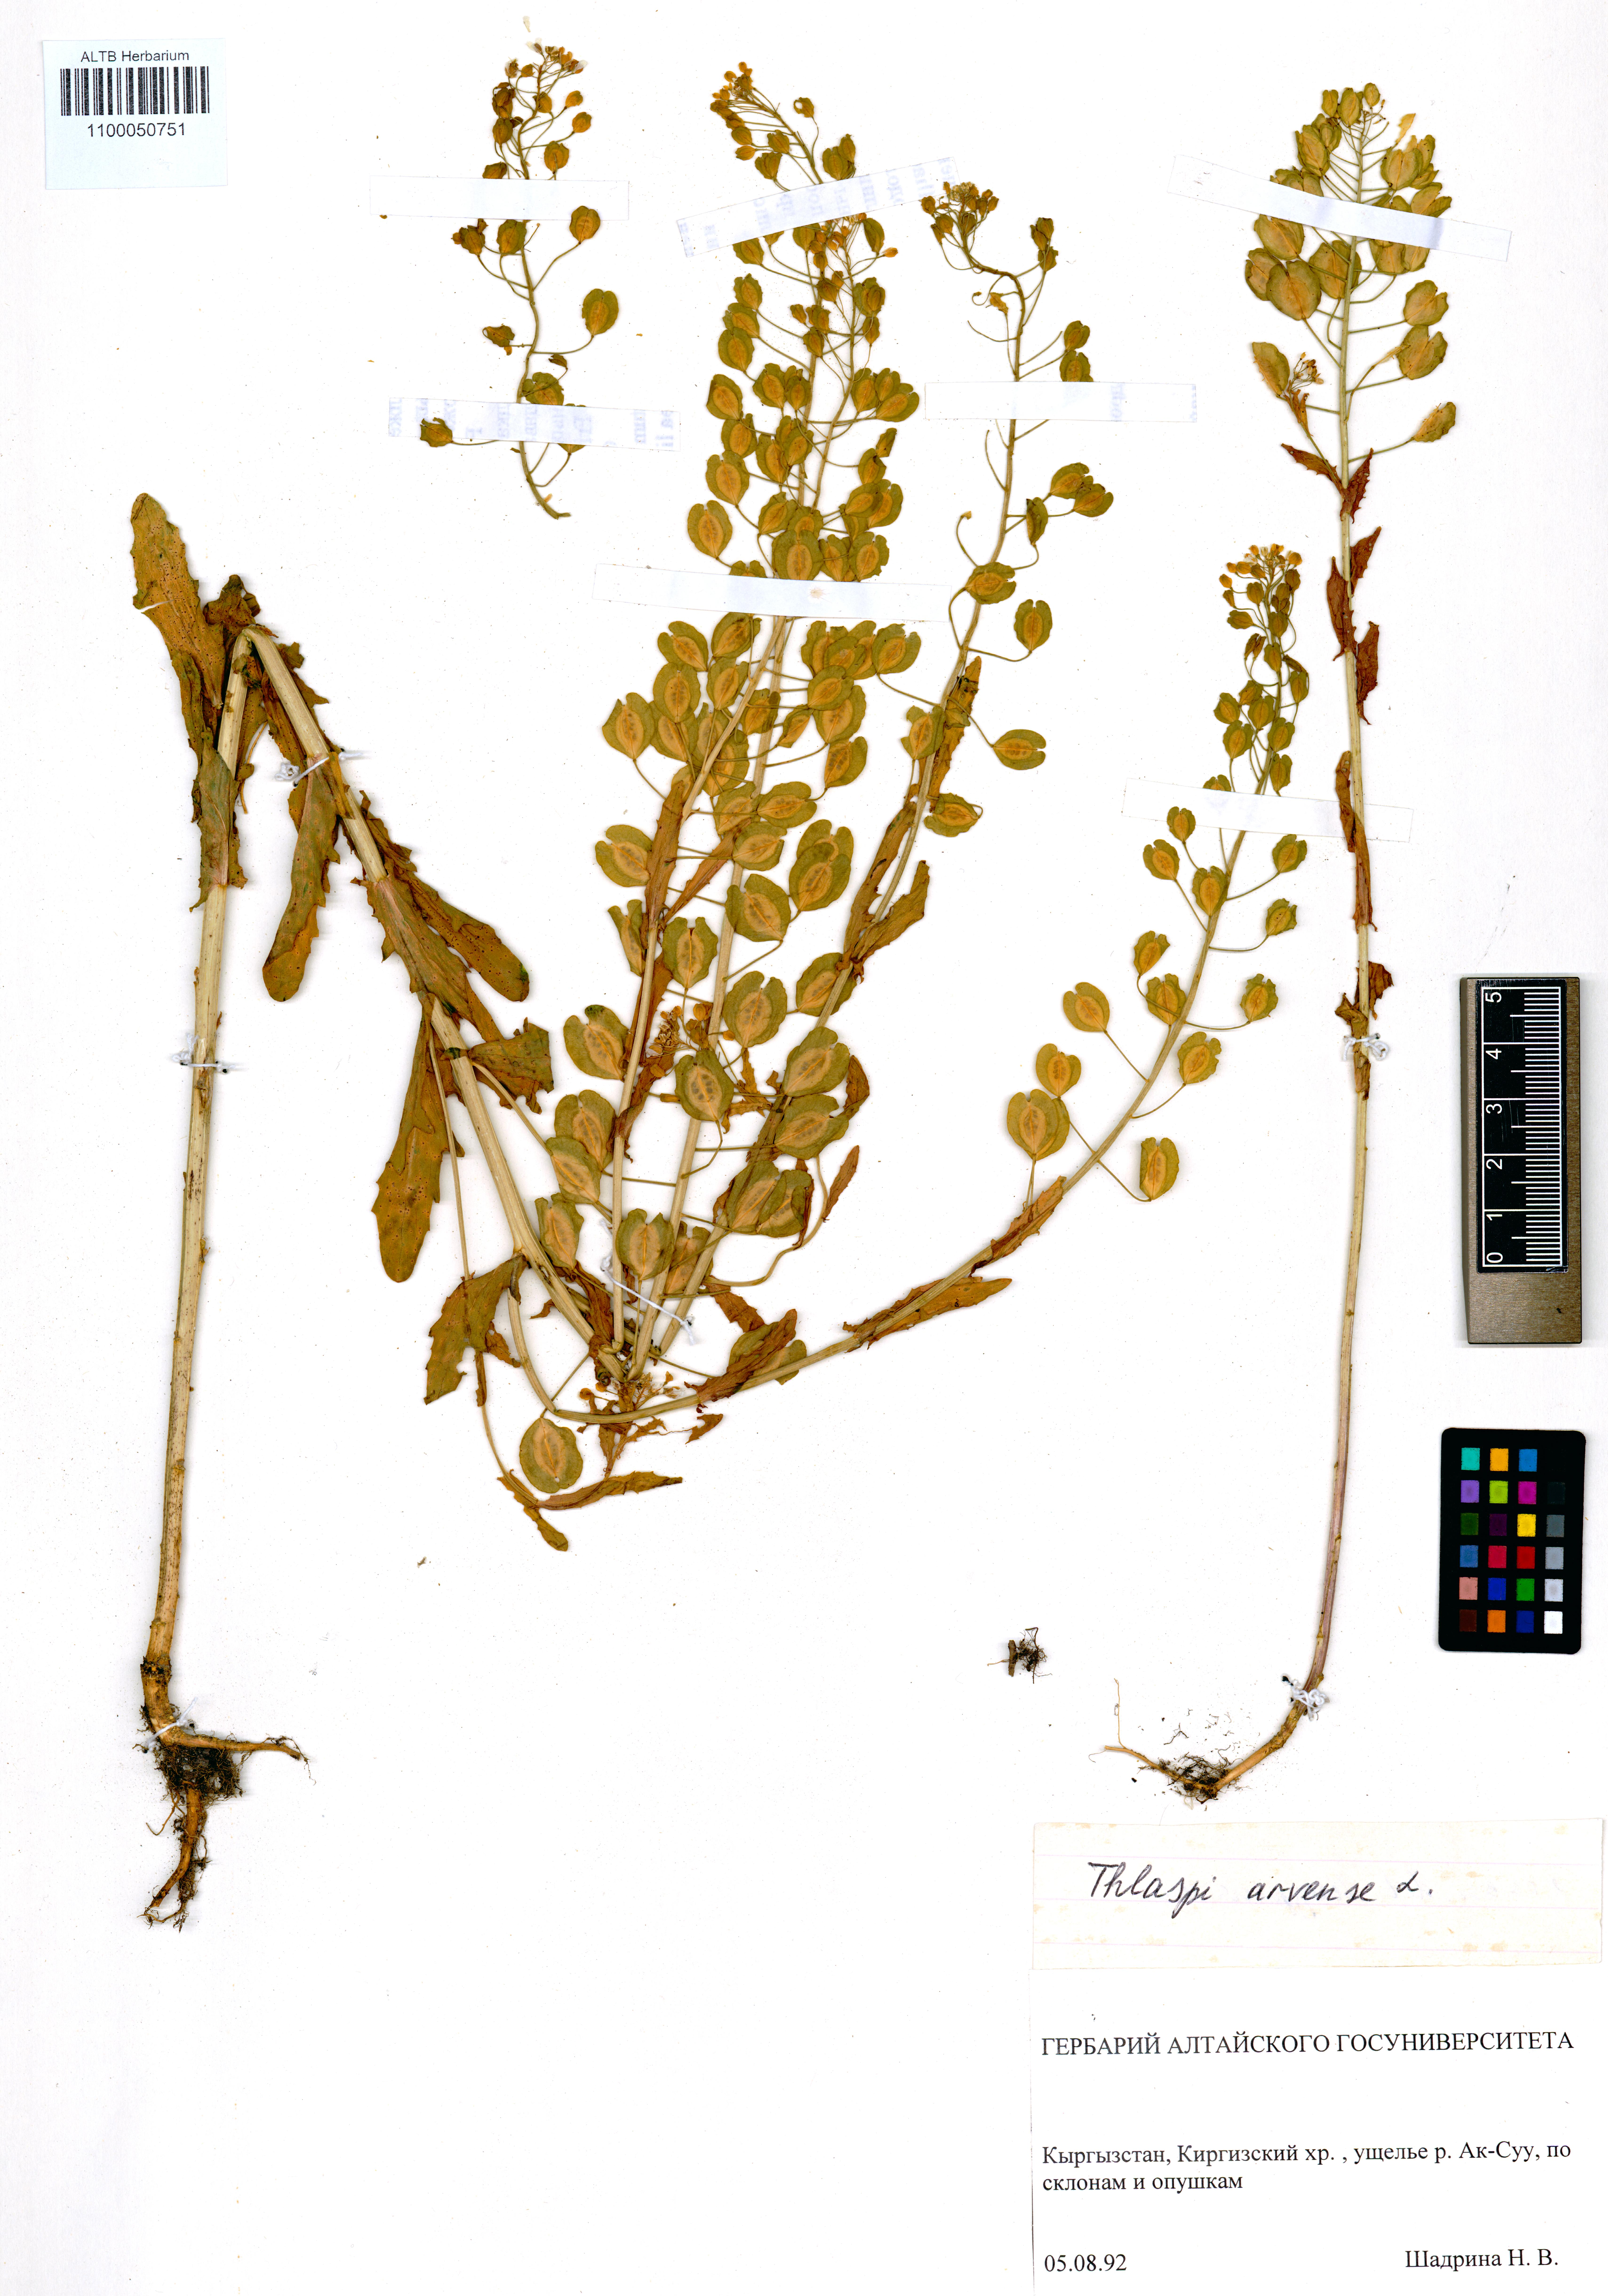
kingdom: Plantae
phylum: Tracheophyta
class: Magnoliopsida
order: Brassicales
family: Brassicaceae
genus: Thlaspi
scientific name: Thlaspi arvense
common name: Field pennycress
